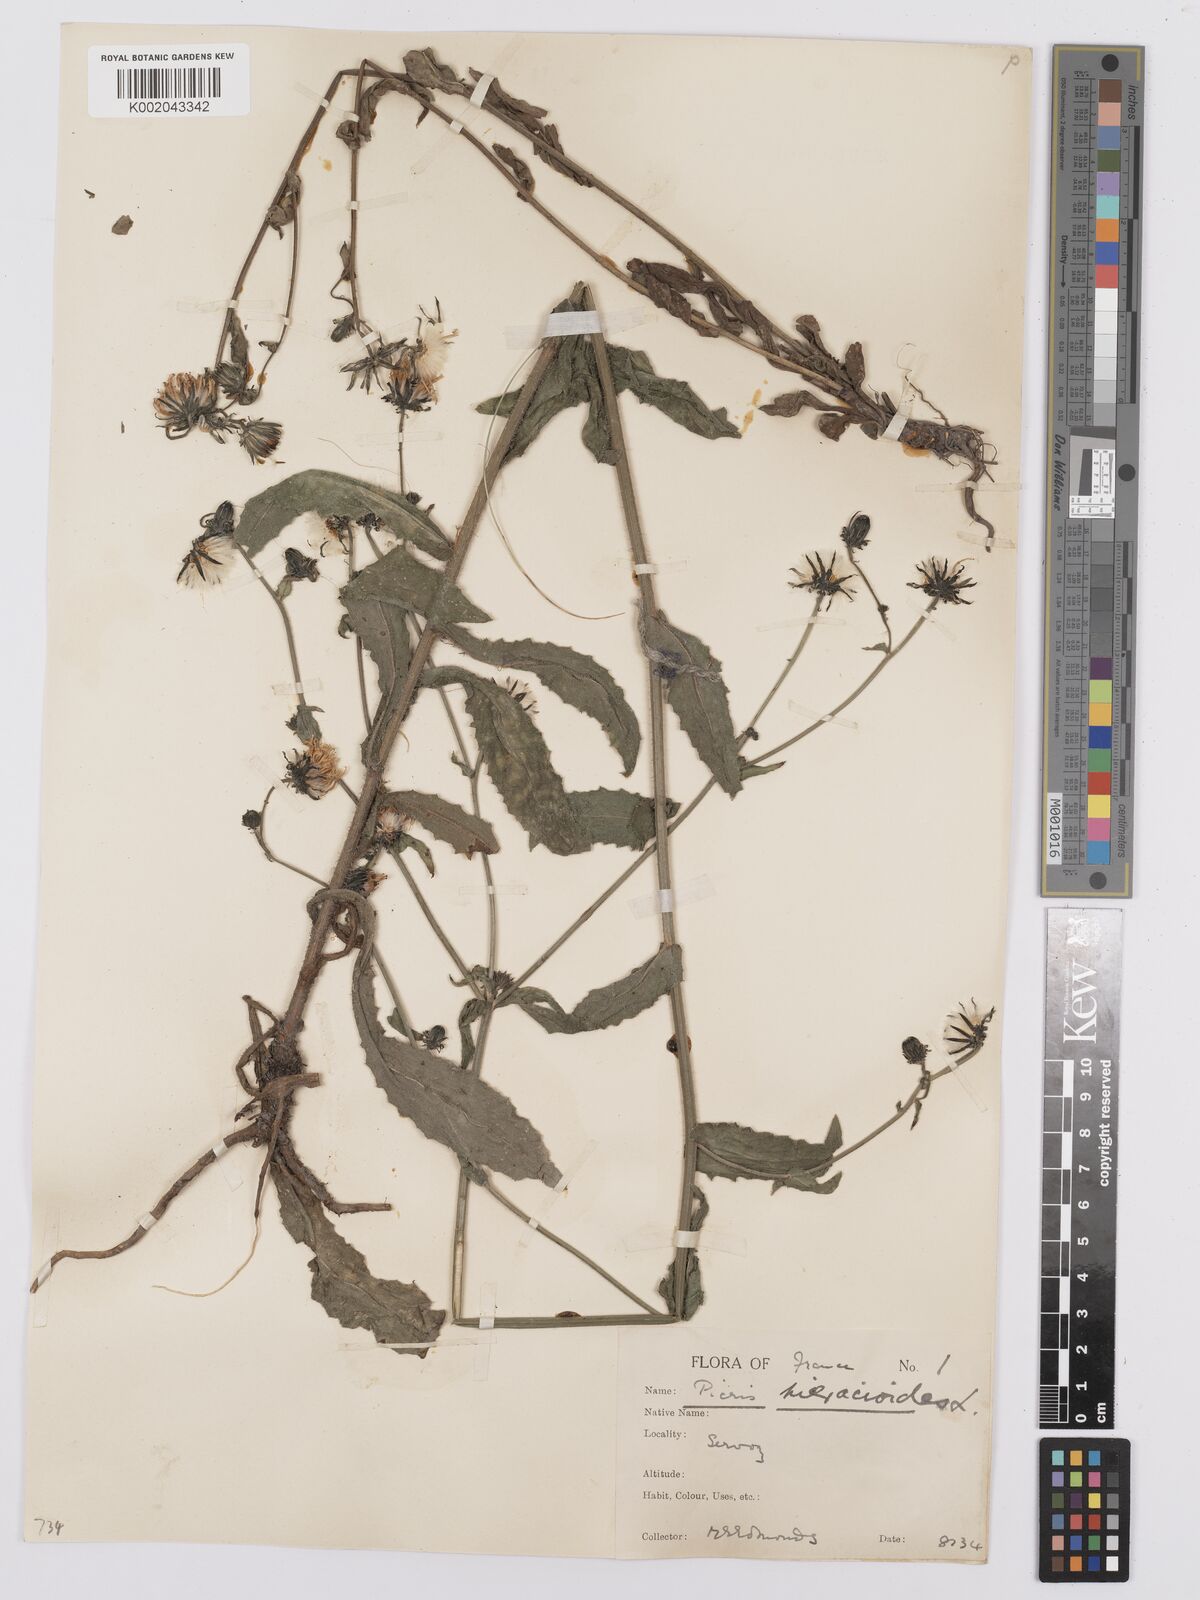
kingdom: Plantae
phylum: Tracheophyta
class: Magnoliopsida
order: Asterales
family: Asteraceae
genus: Picris
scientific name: Picris hieracioides
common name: Hawkweed oxtongue
